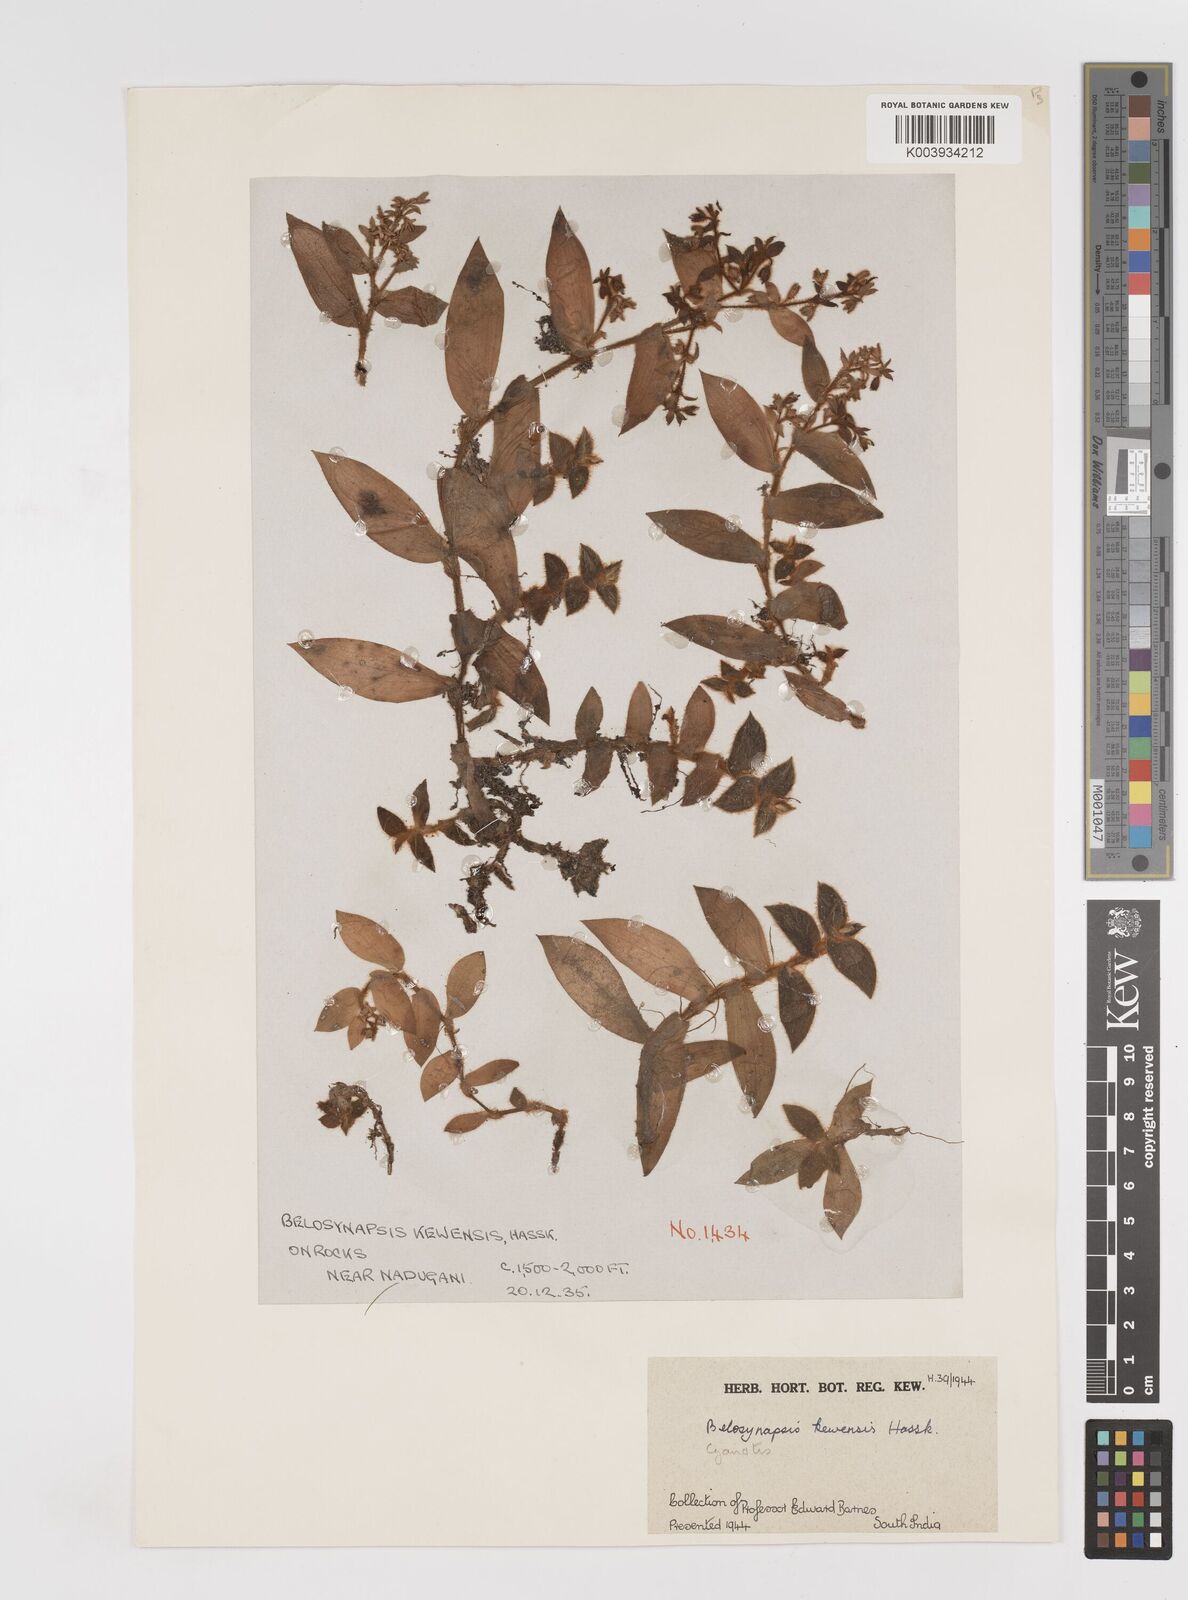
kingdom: Plantae
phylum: Tracheophyta
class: Liliopsida
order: Commelinales
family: Commelinaceae
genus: Cyanotis
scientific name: Cyanotis beddomei
